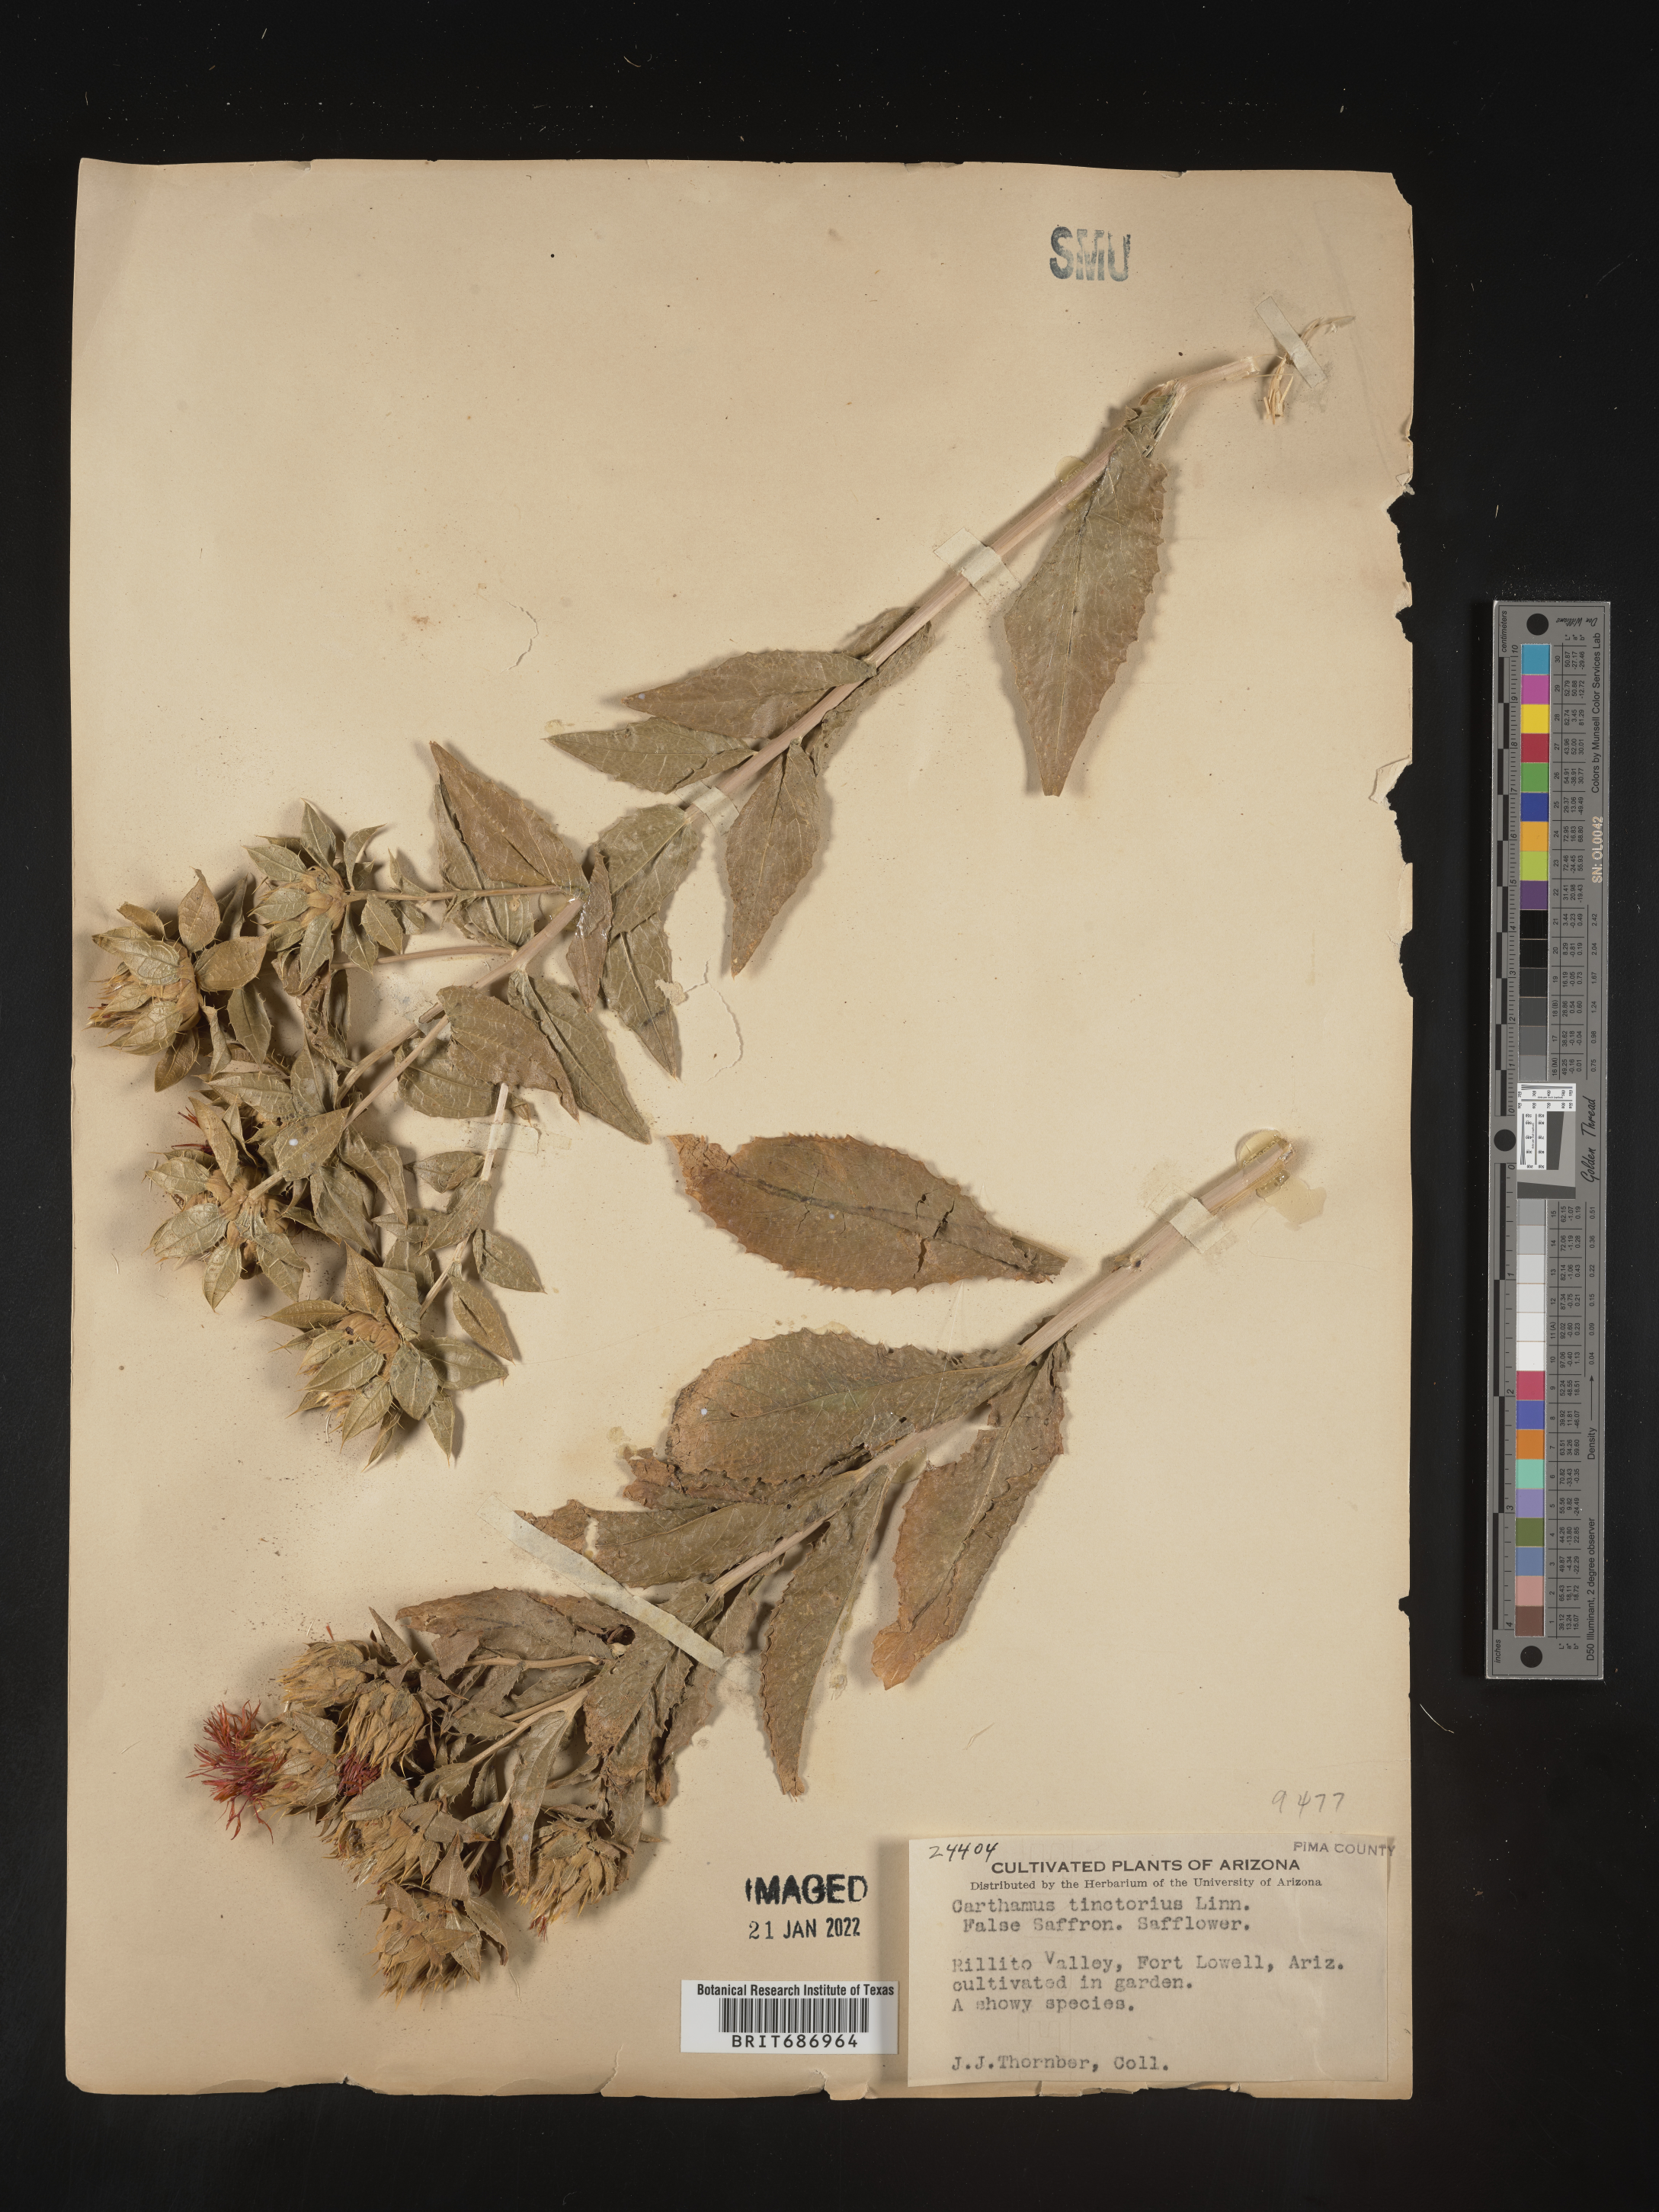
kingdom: Plantae
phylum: Tracheophyta
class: Magnoliopsida
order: Asterales
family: Asteraceae
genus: Carthamus
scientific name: Carthamus
